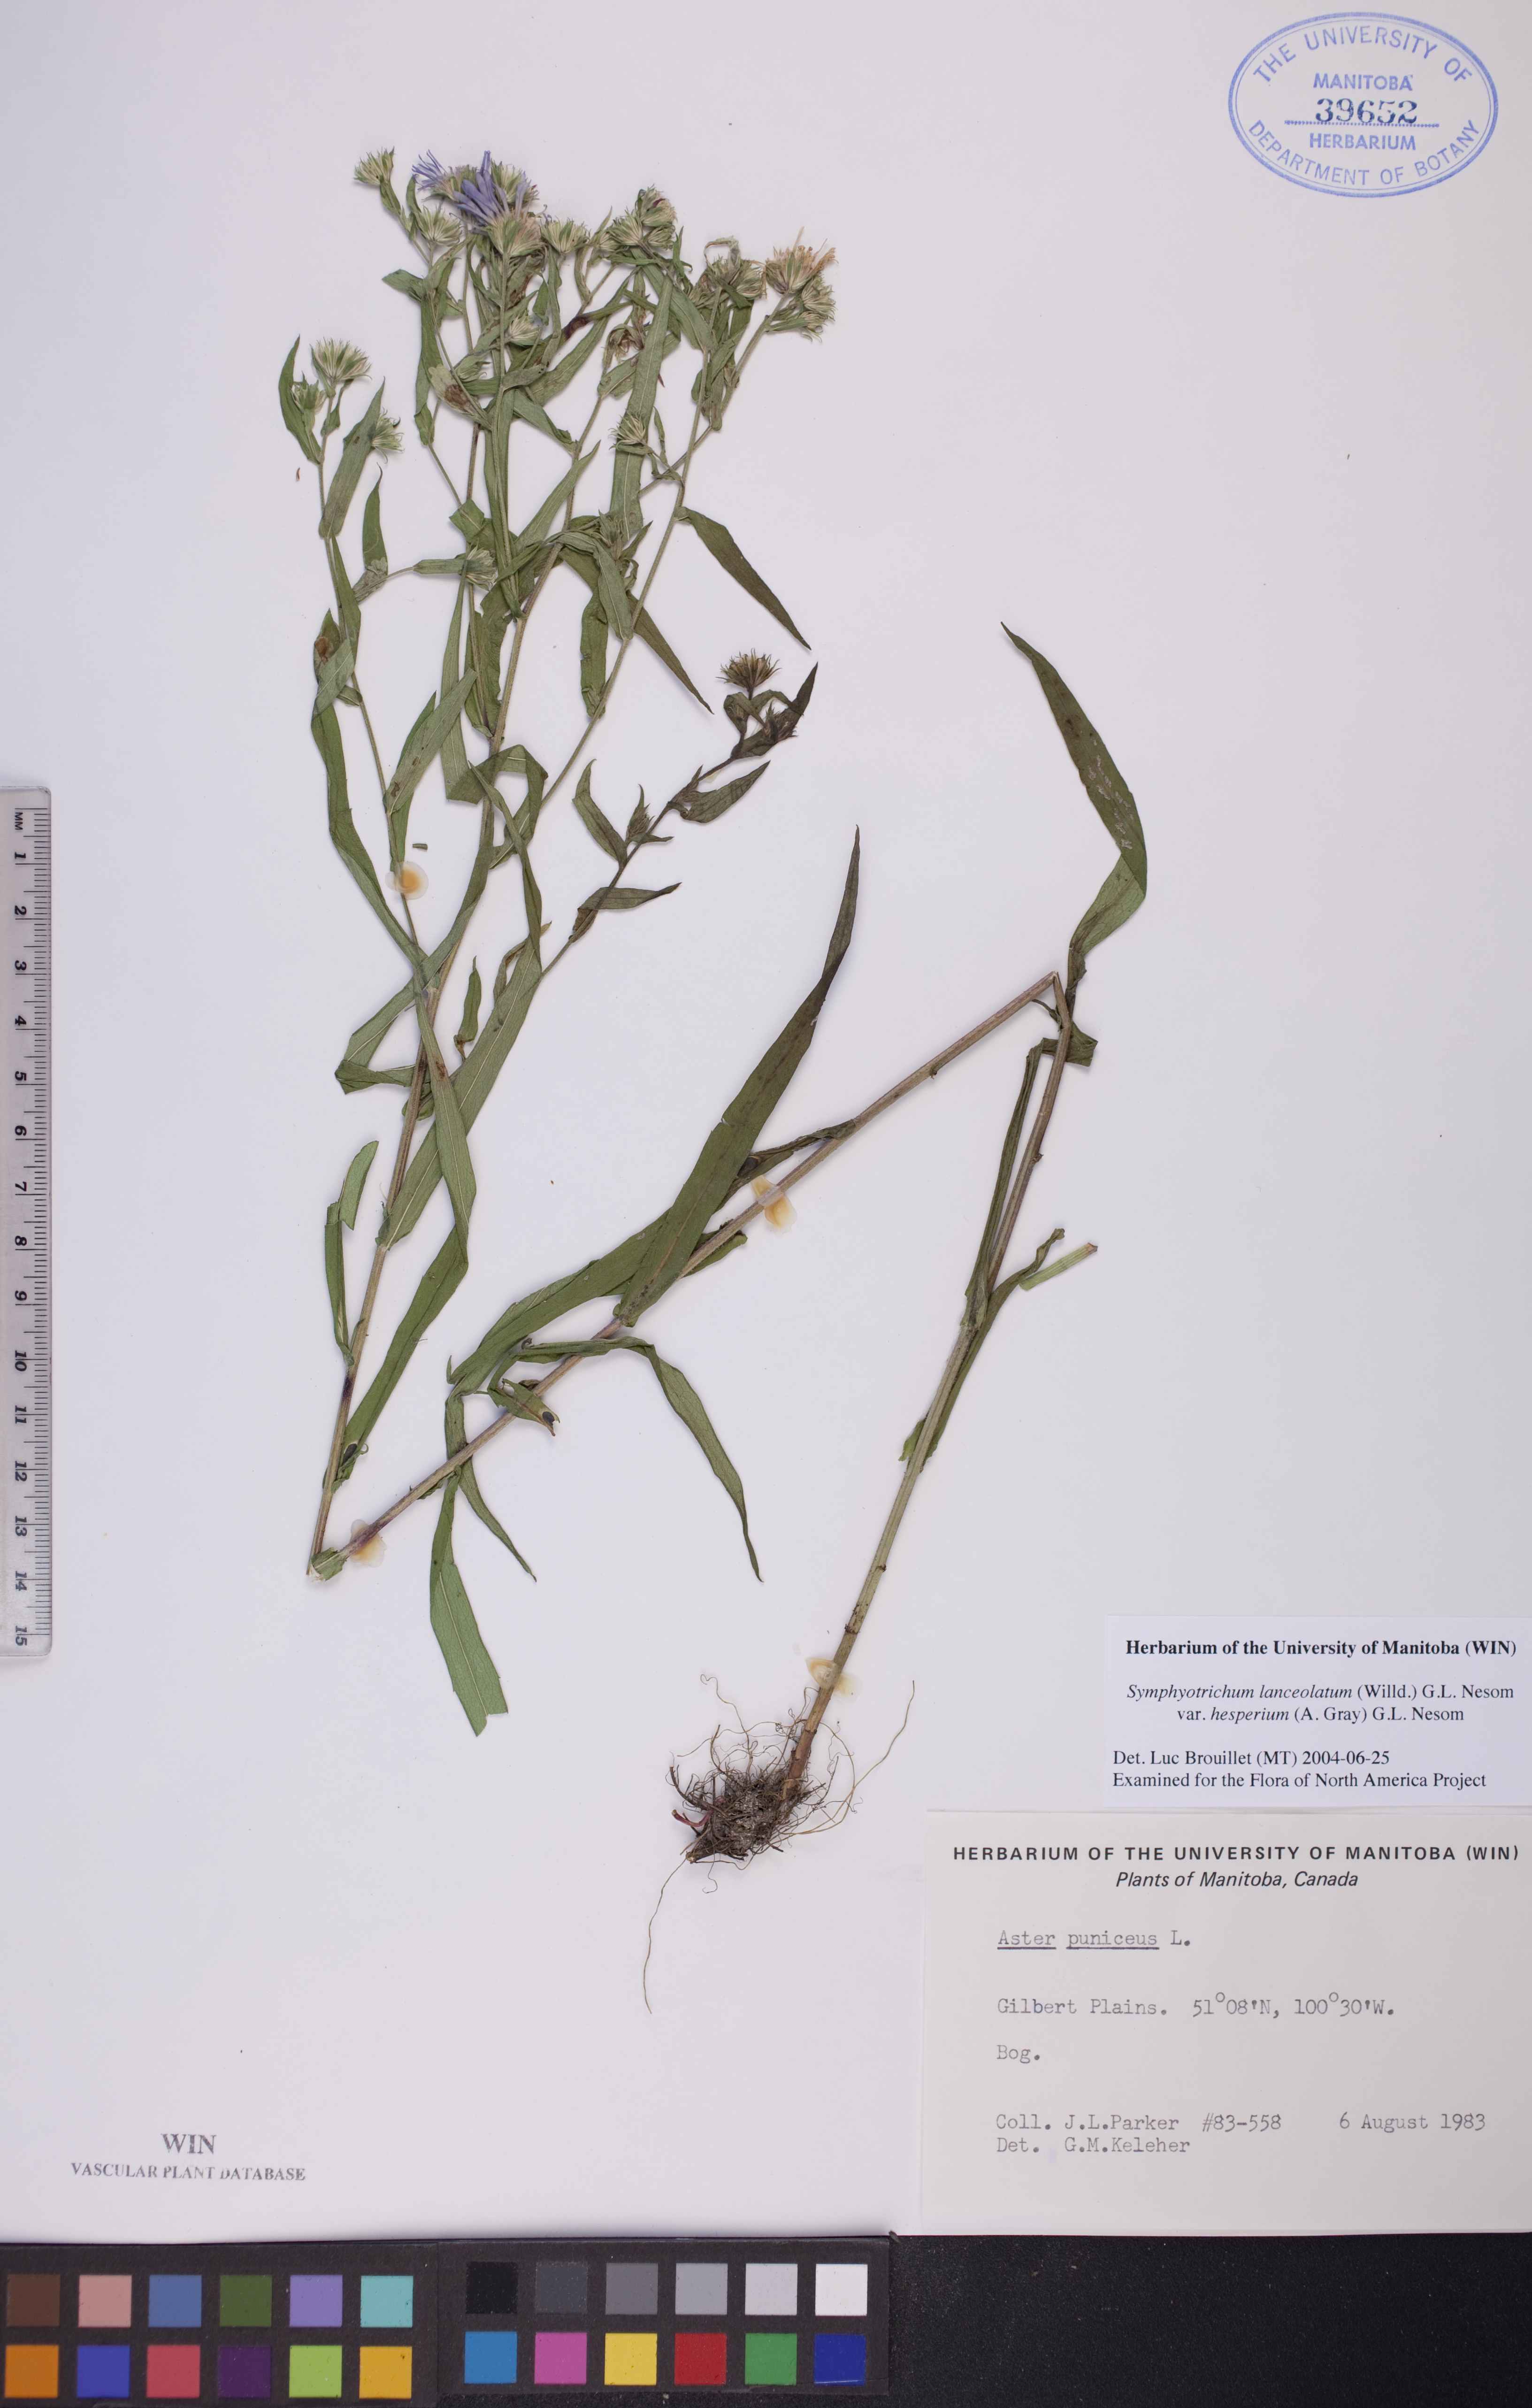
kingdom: Plantae
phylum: Tracheophyta
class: Magnoliopsida
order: Asterales
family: Asteraceae
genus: Symphyotrichum
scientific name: Symphyotrichum lanceolatum
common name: Panicled aster
